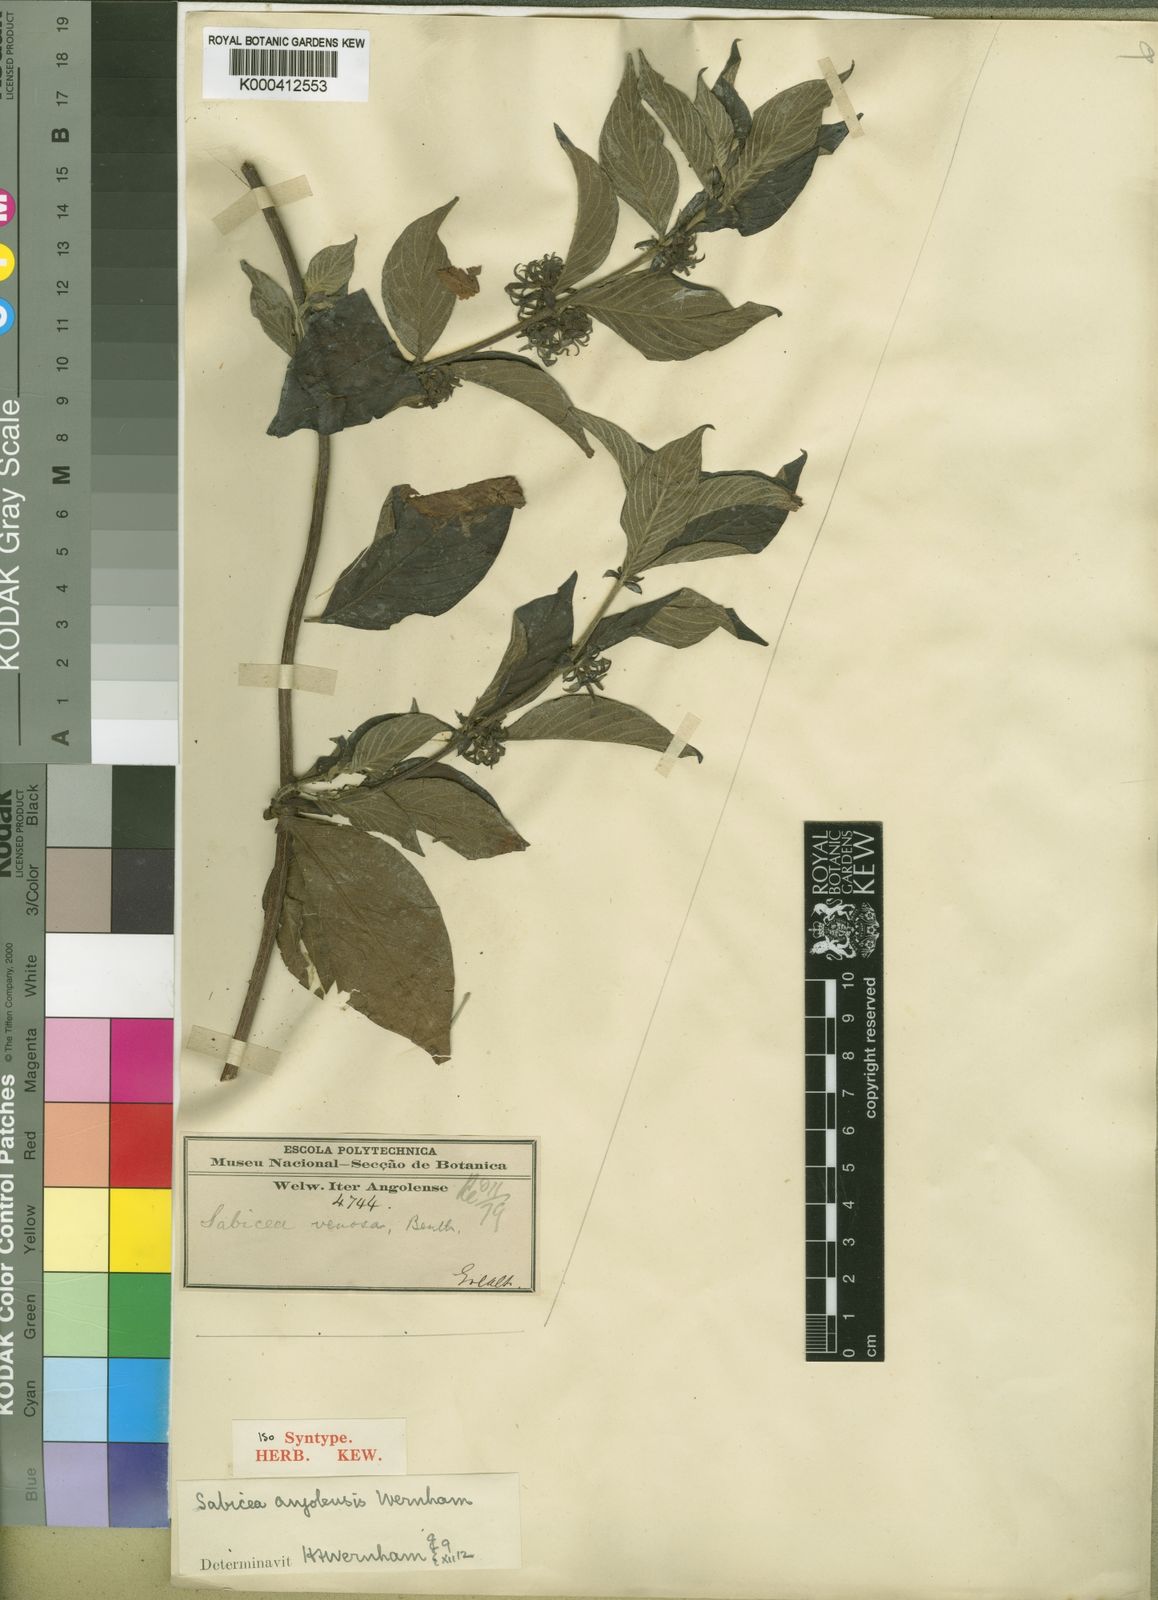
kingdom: Plantae
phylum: Tracheophyta
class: Magnoliopsida
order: Gentianales
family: Rubiaceae
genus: Sabicea
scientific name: Sabicea venosa
